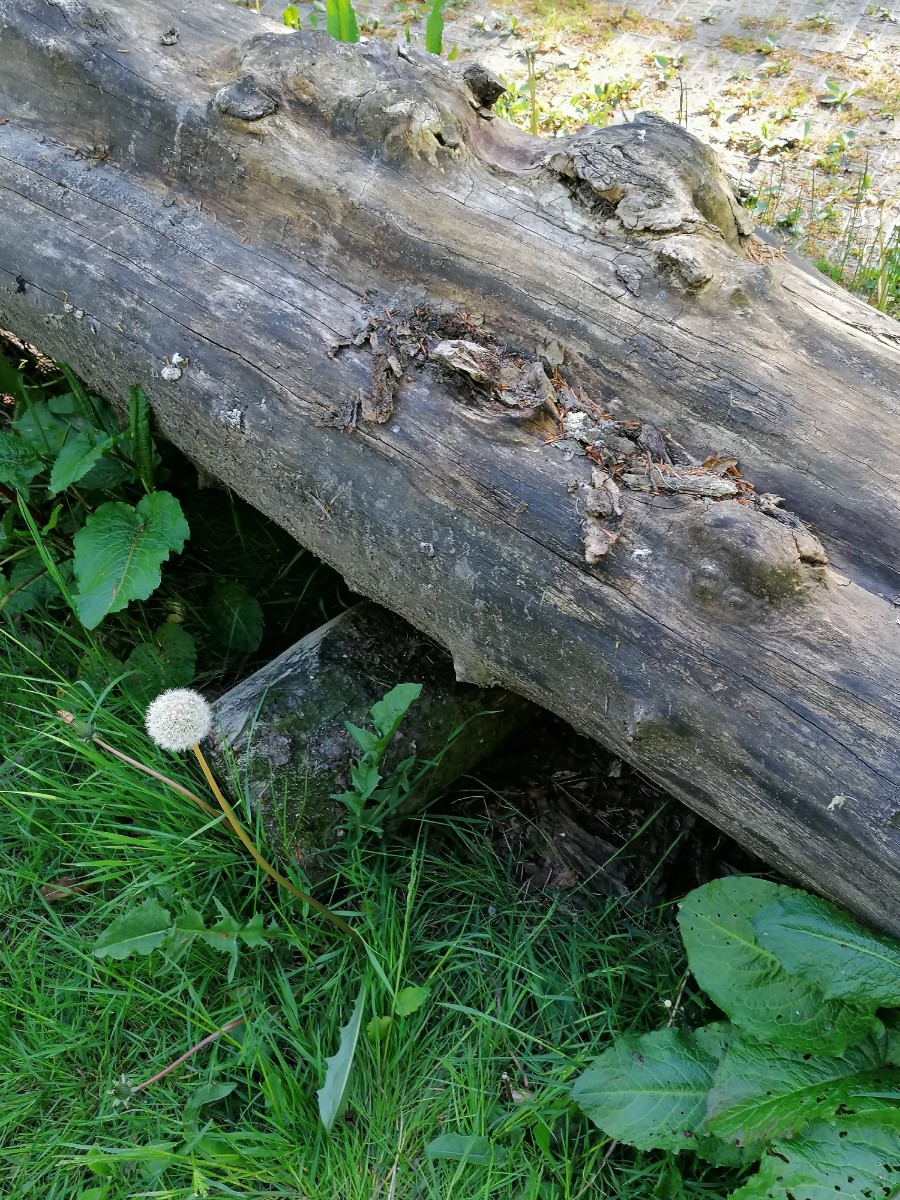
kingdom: Fungi
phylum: Basidiomycota
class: Agaricomycetes
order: Agaricales
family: Pluteaceae
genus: Pluteus
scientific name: Pluteus
